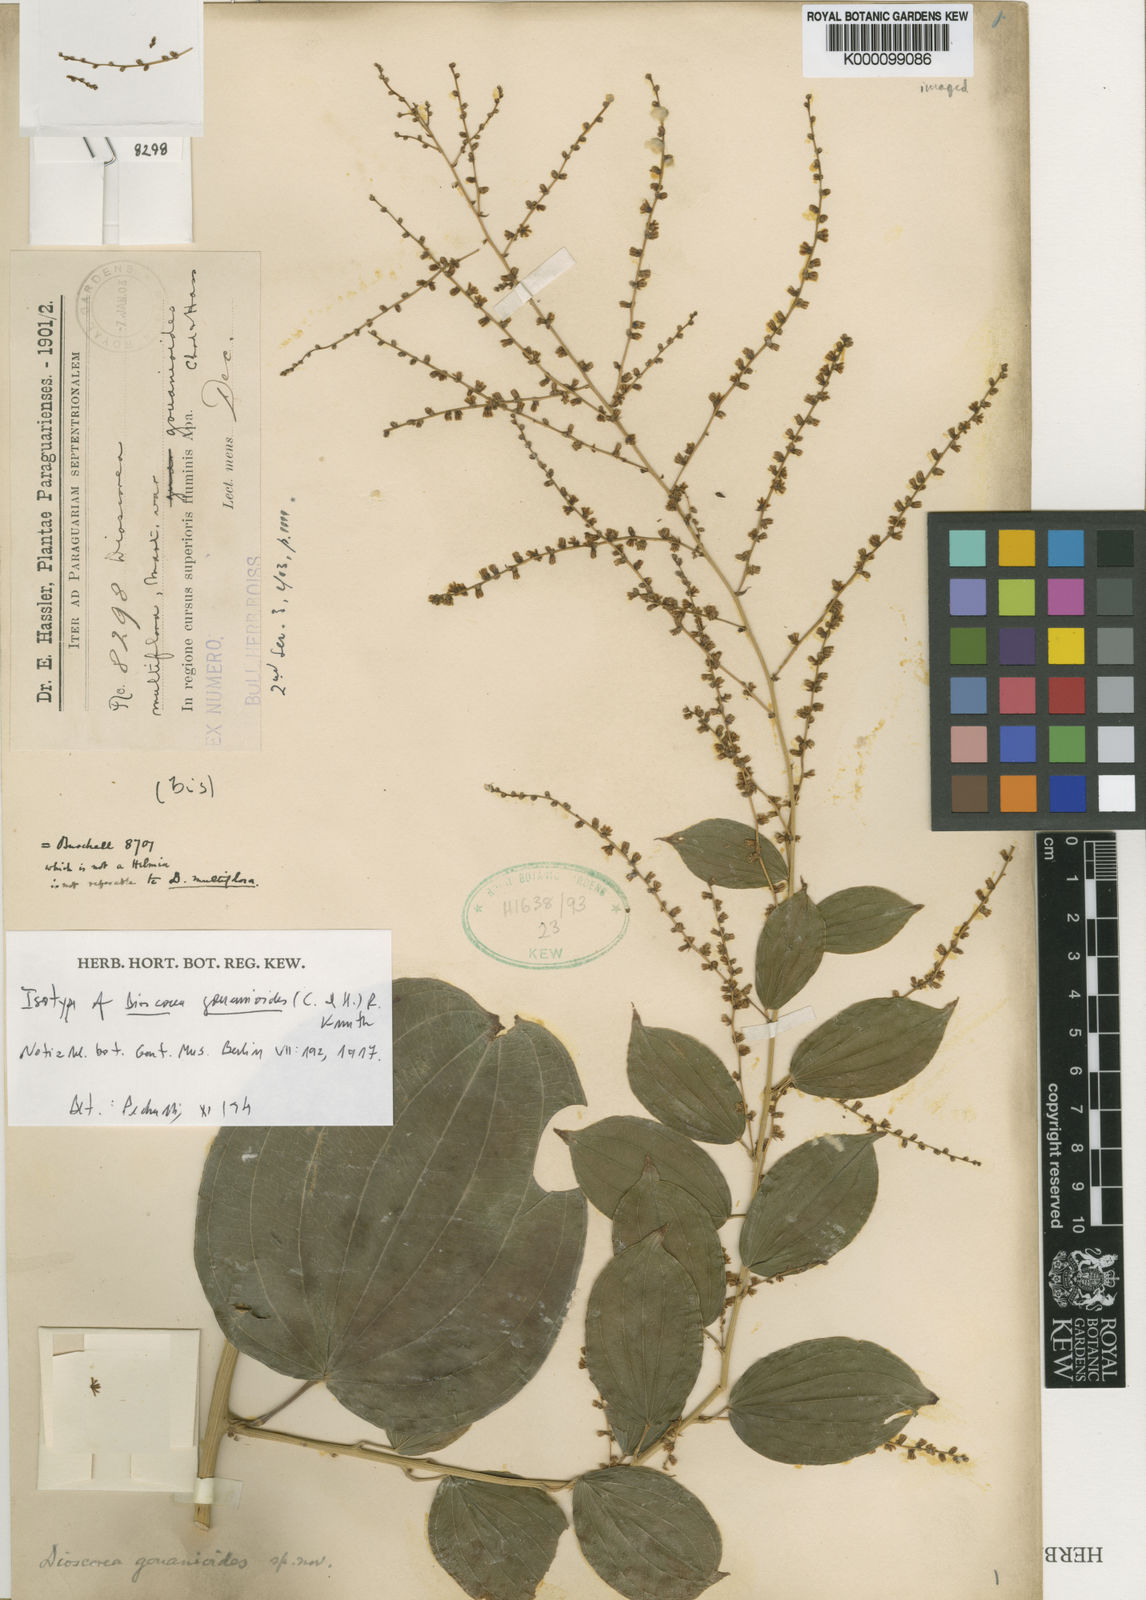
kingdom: Plantae
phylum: Tracheophyta
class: Liliopsida
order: Dioscoreales
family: Dioscoreaceae
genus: Dioscorea
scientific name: Dioscorea acanthogene
